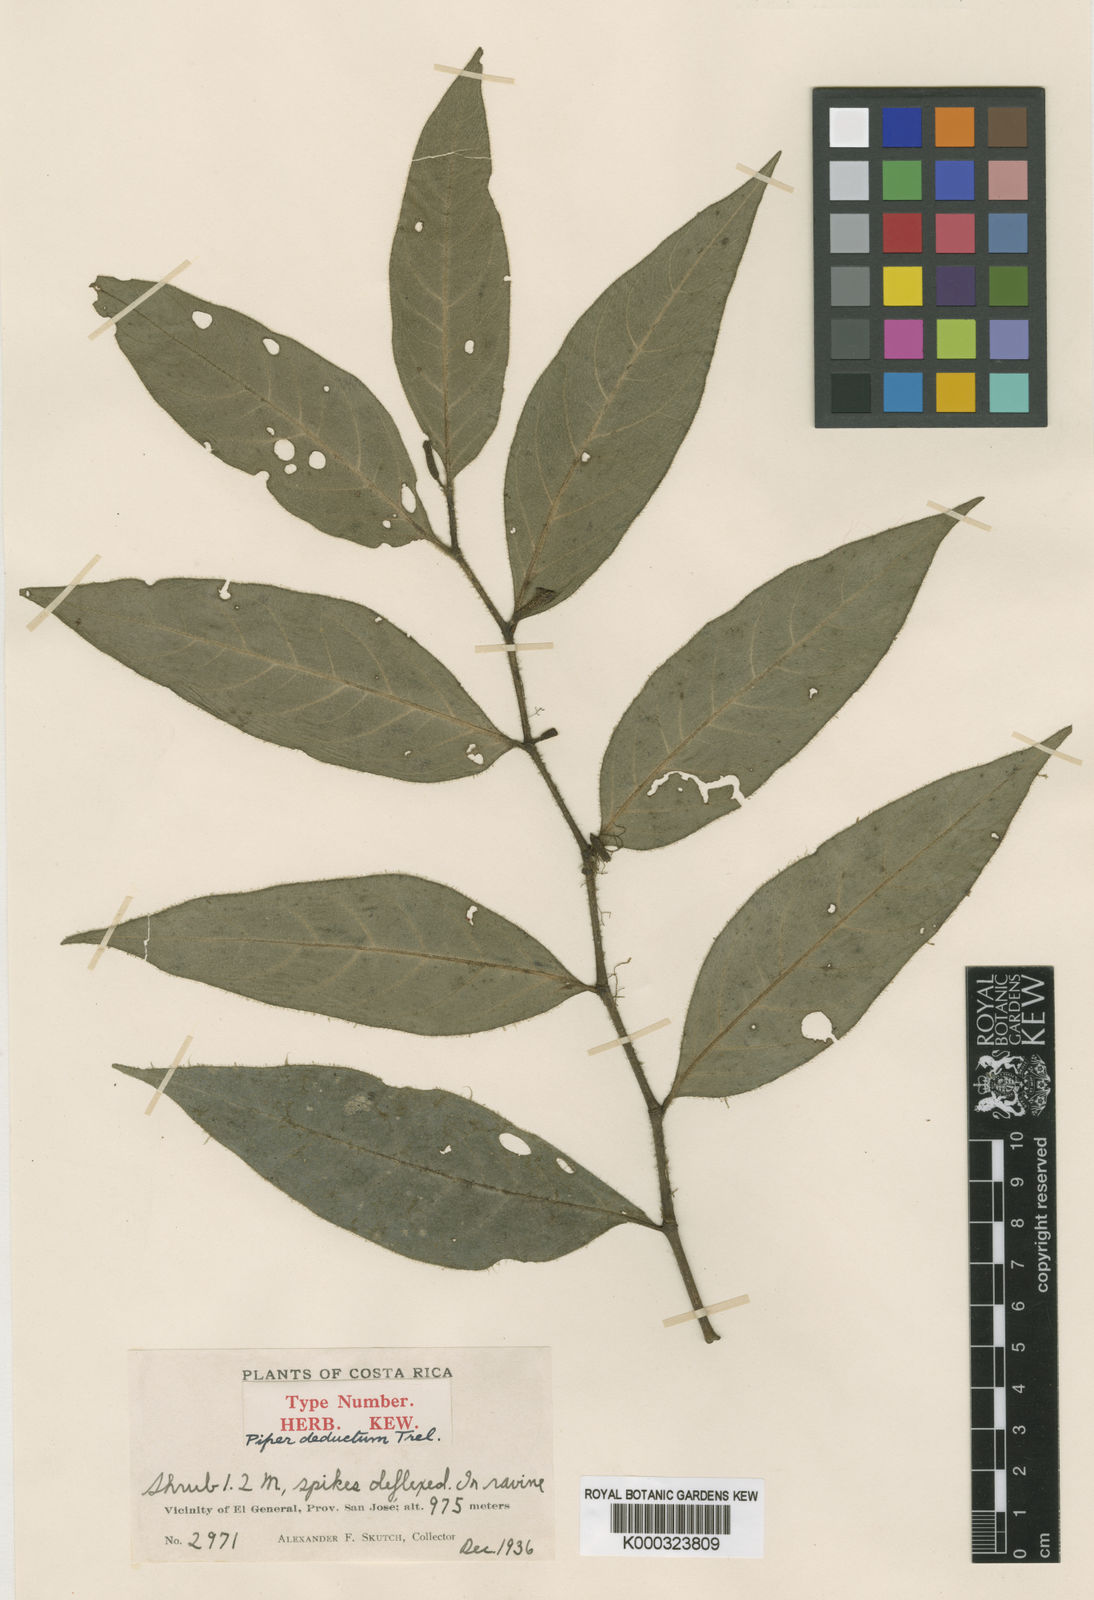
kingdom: Plantae
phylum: Tracheophyta
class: Magnoliopsida
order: Piperales
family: Piperaceae
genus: Piper
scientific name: Piper deductum
